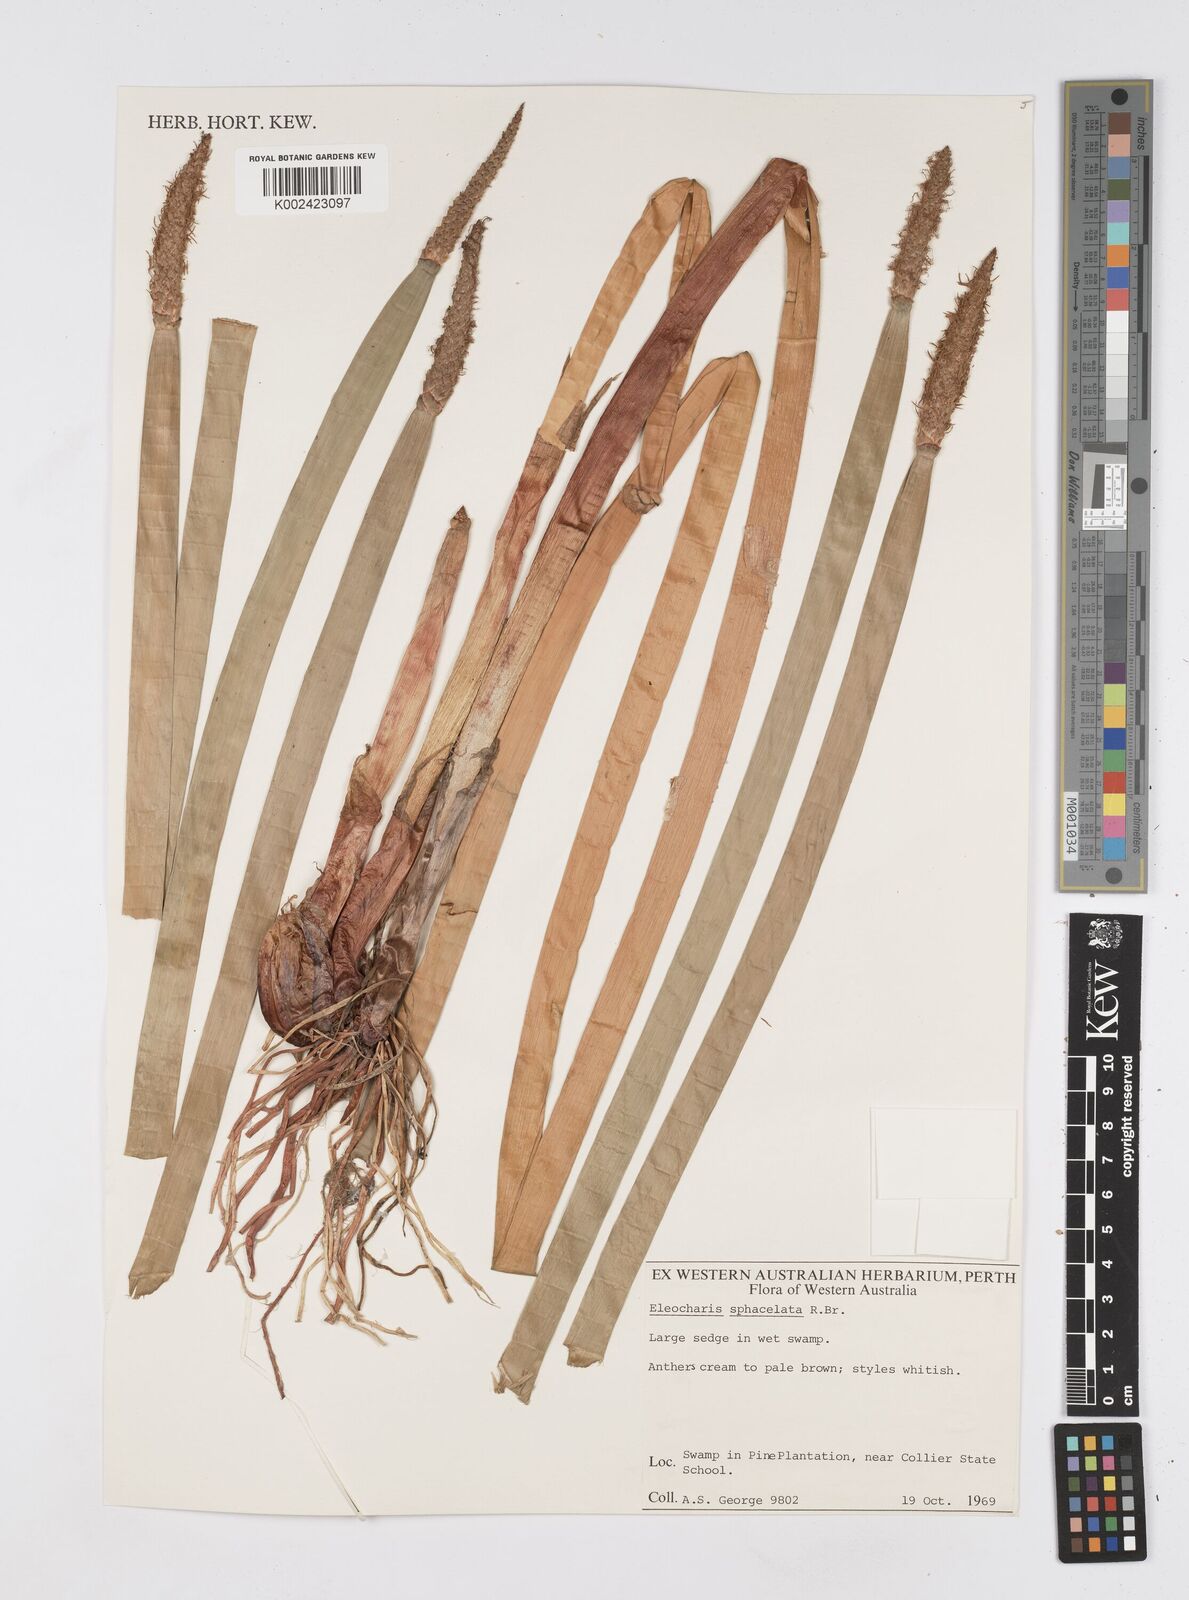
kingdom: Plantae
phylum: Tracheophyta
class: Liliopsida
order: Poales
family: Cyperaceae
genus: Eleocharis
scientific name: Eleocharis sphacelata
